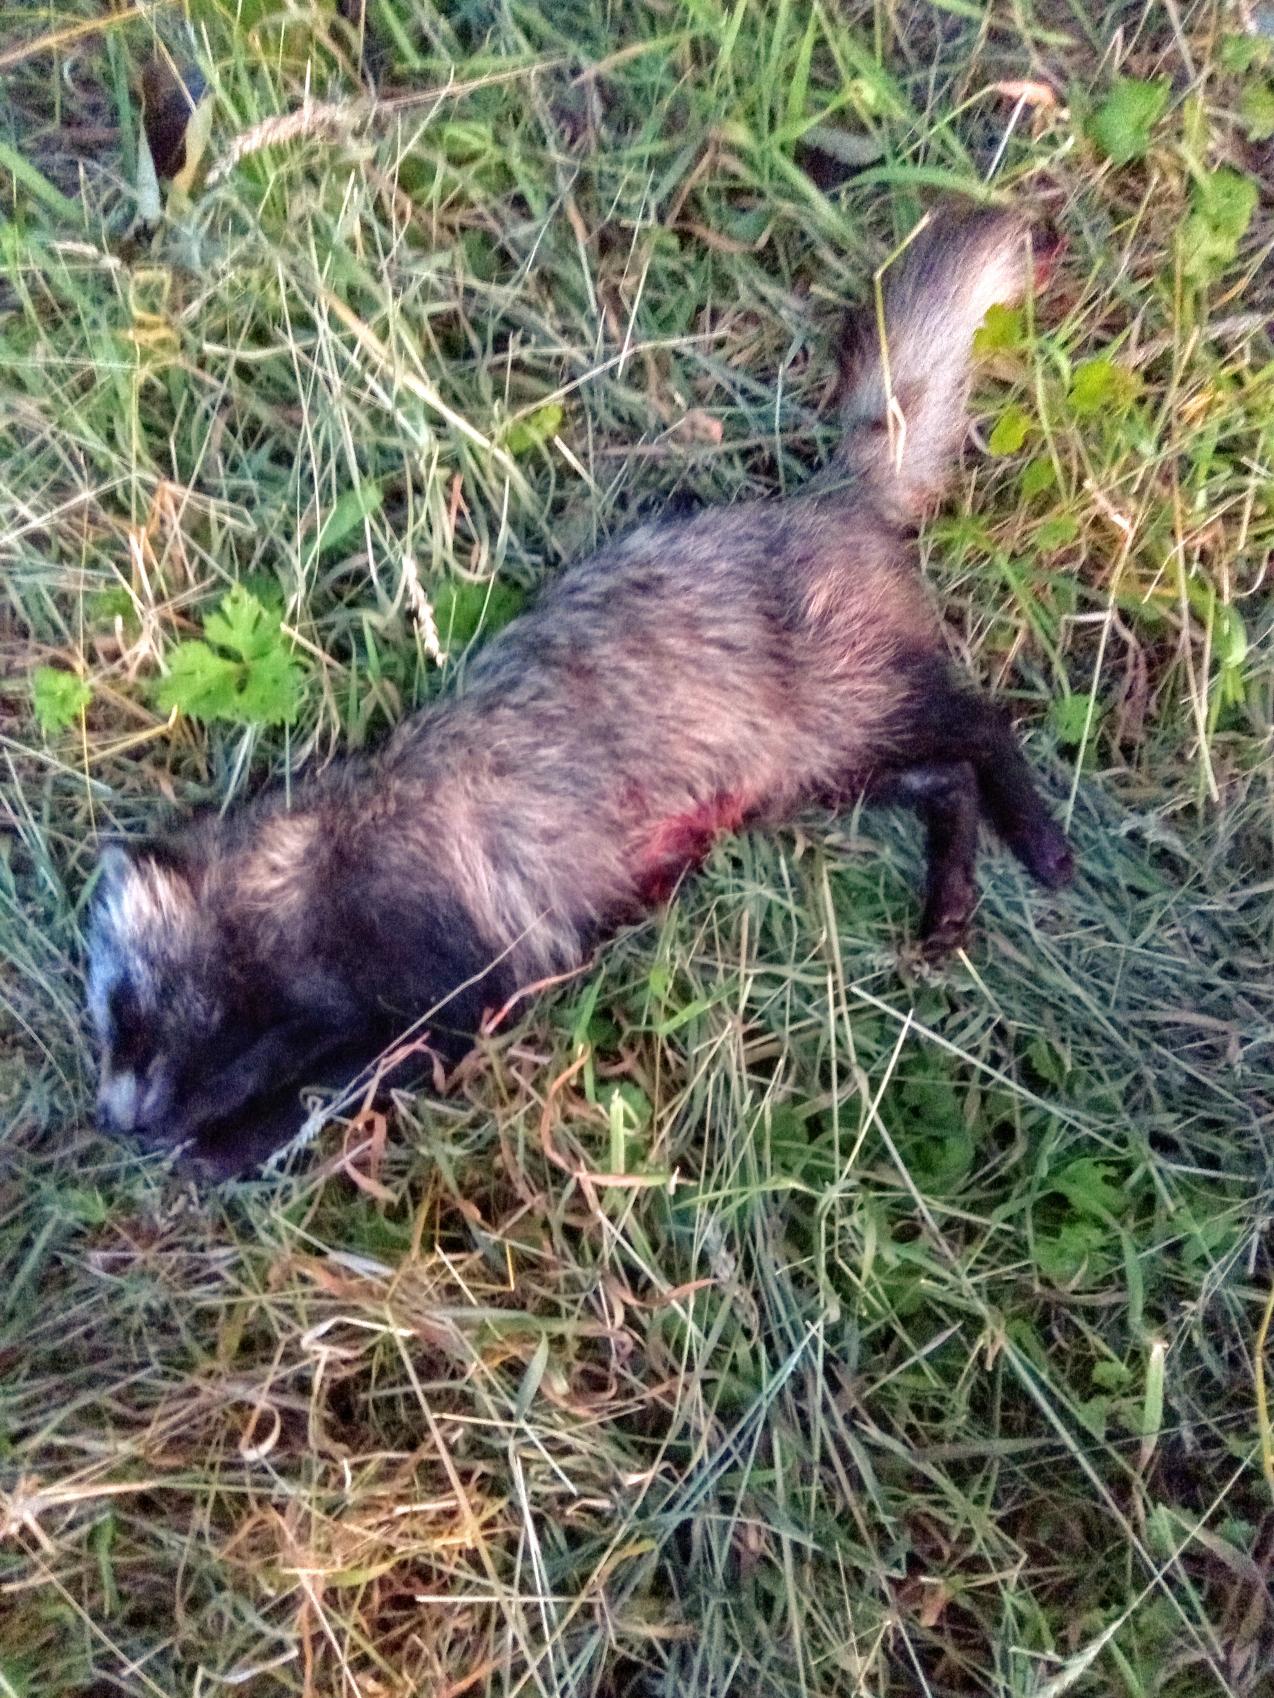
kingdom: Animalia
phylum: Chordata
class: Mammalia
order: Carnivora
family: Canidae
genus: Nyctereutes
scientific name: Nyctereutes procyonoides
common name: Mårhund
